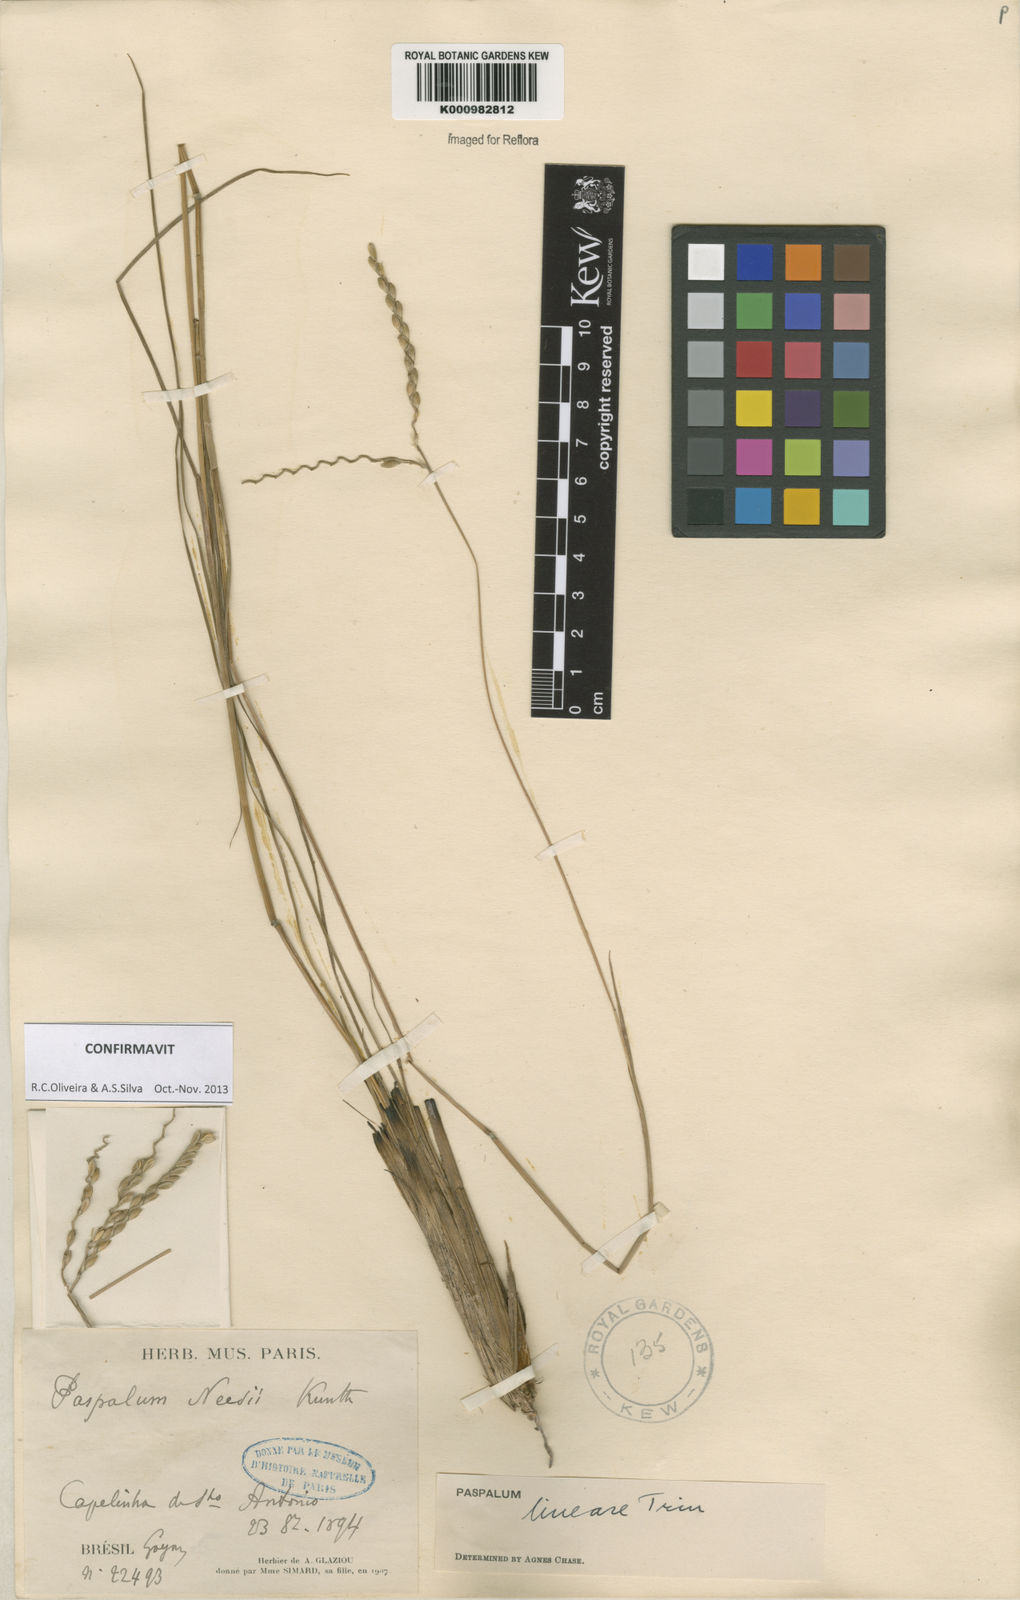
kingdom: Plantae
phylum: Tracheophyta
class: Liliopsida
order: Poales
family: Poaceae
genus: Paspalum
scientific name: Paspalum lineare
